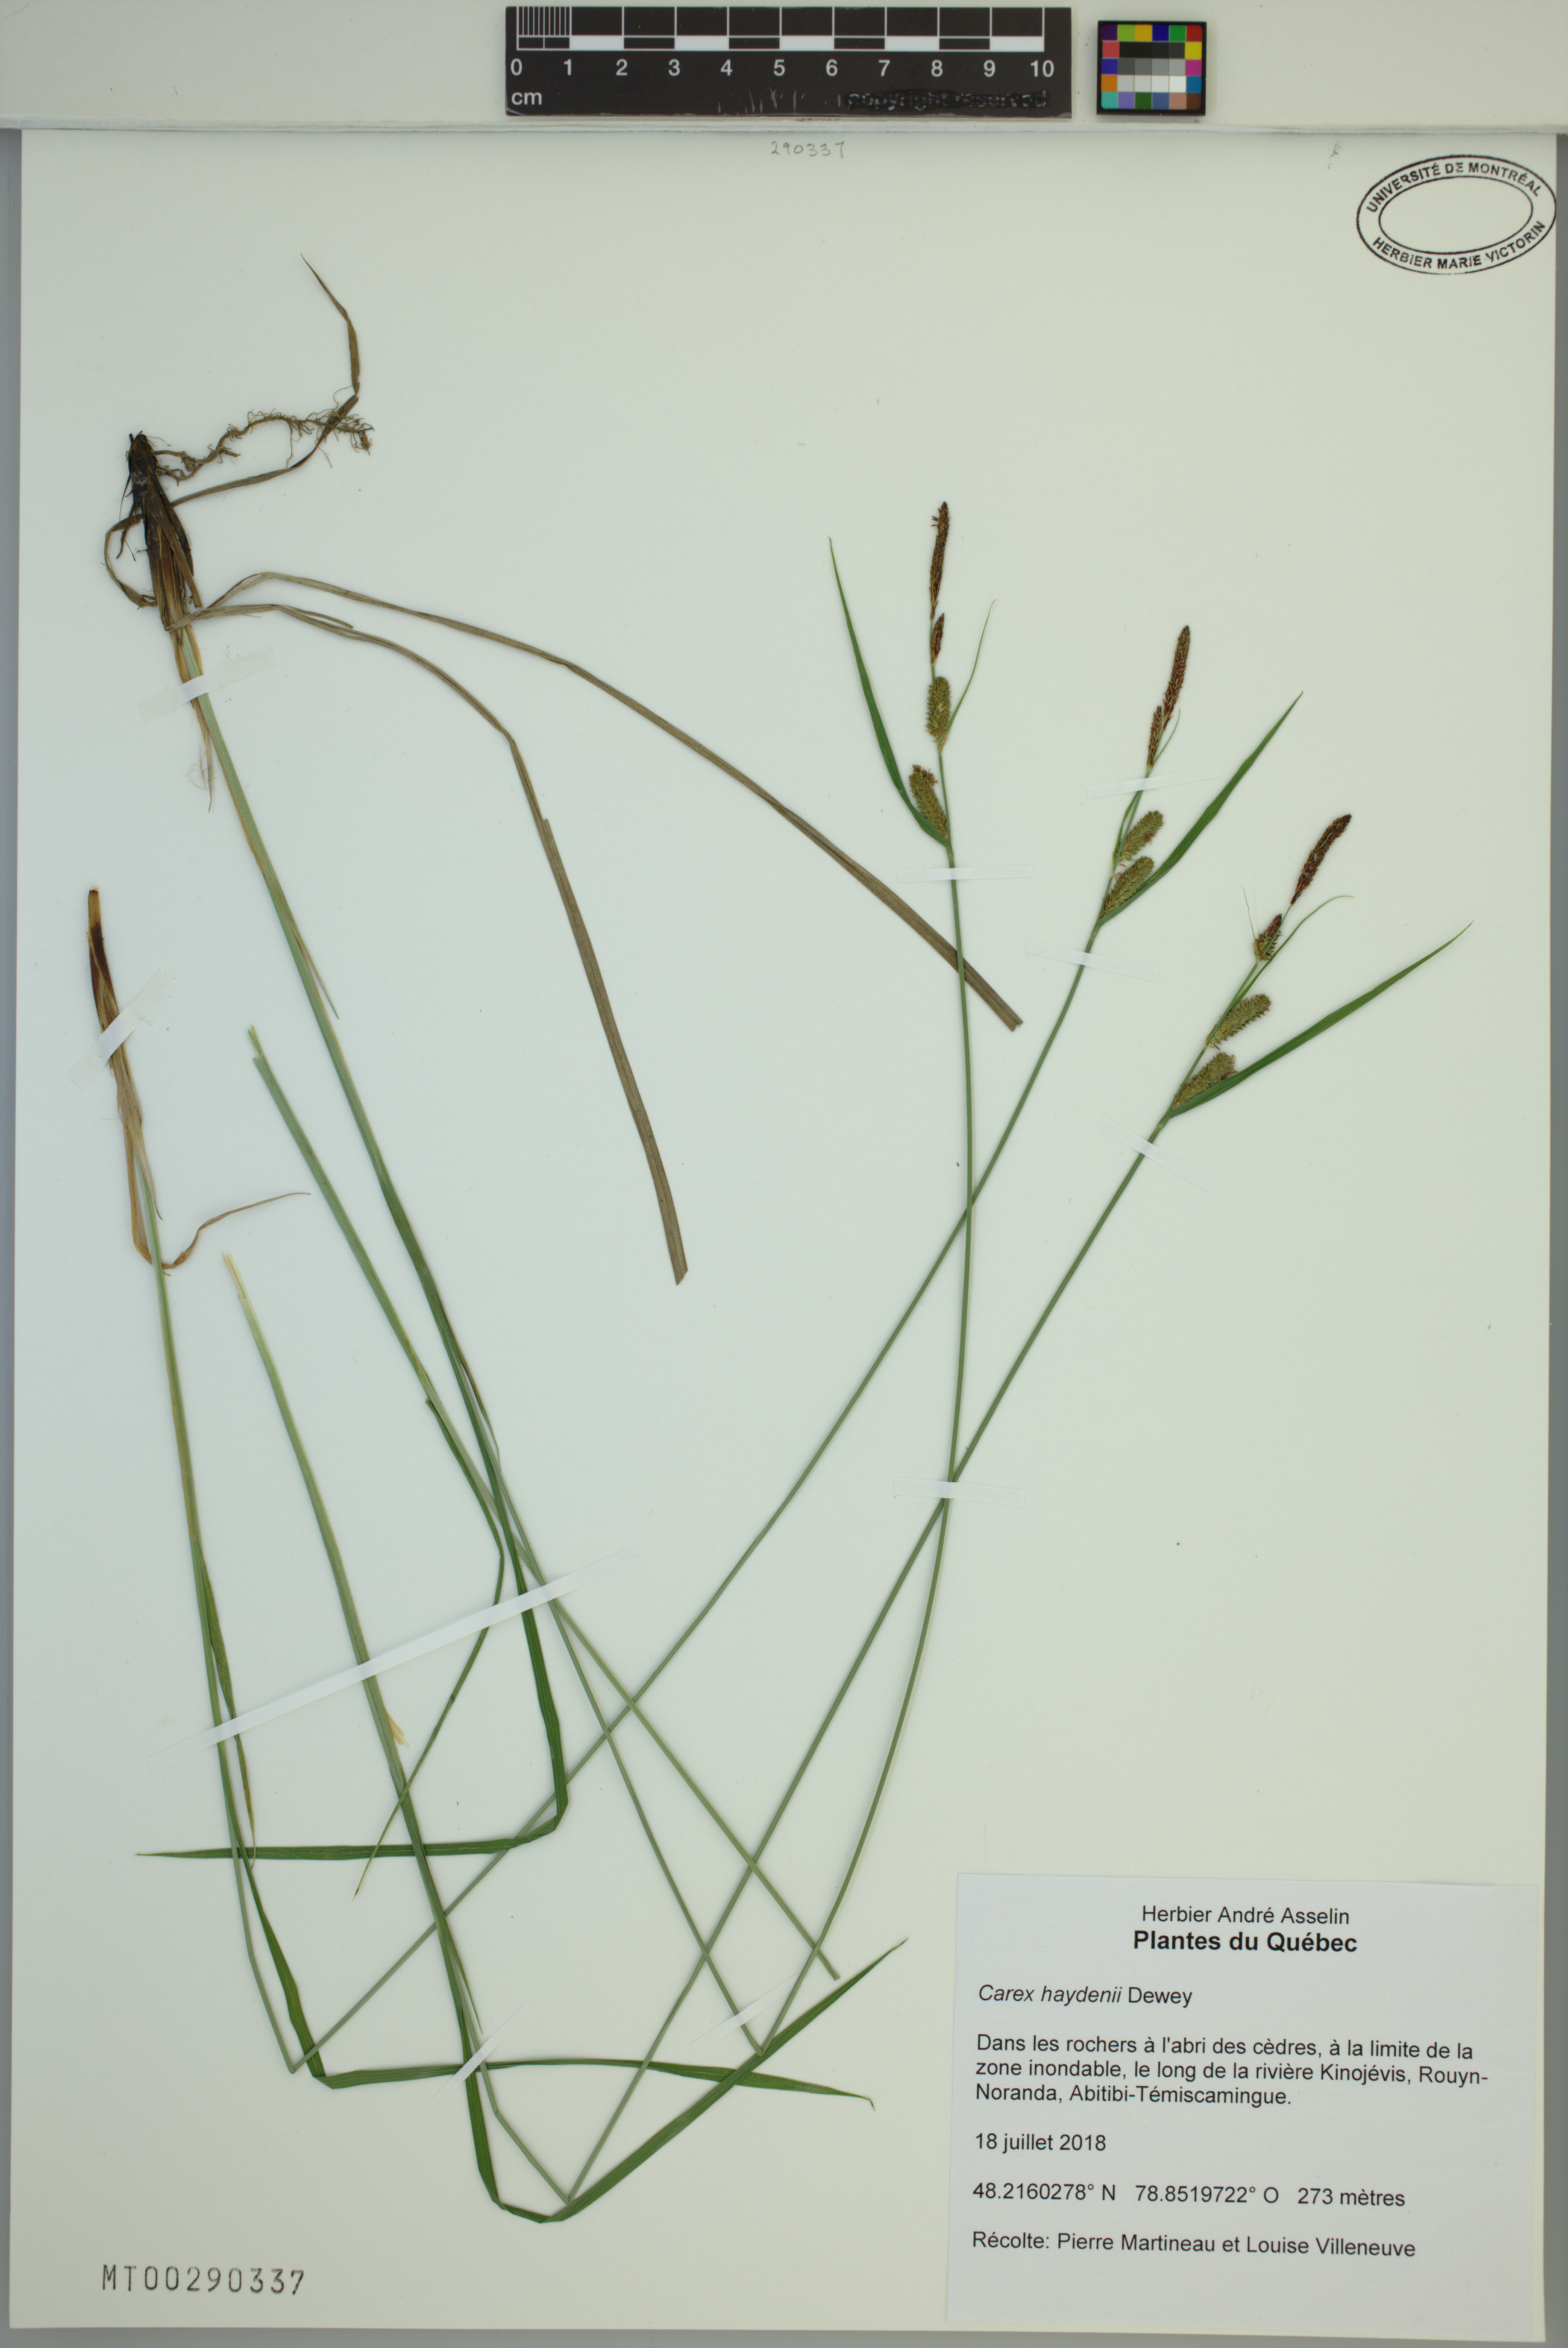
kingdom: Plantae
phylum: Tracheophyta
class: Liliopsida
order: Poales
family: Cyperaceae
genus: Carex
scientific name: Carex haydenii
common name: Hayden's sedge
